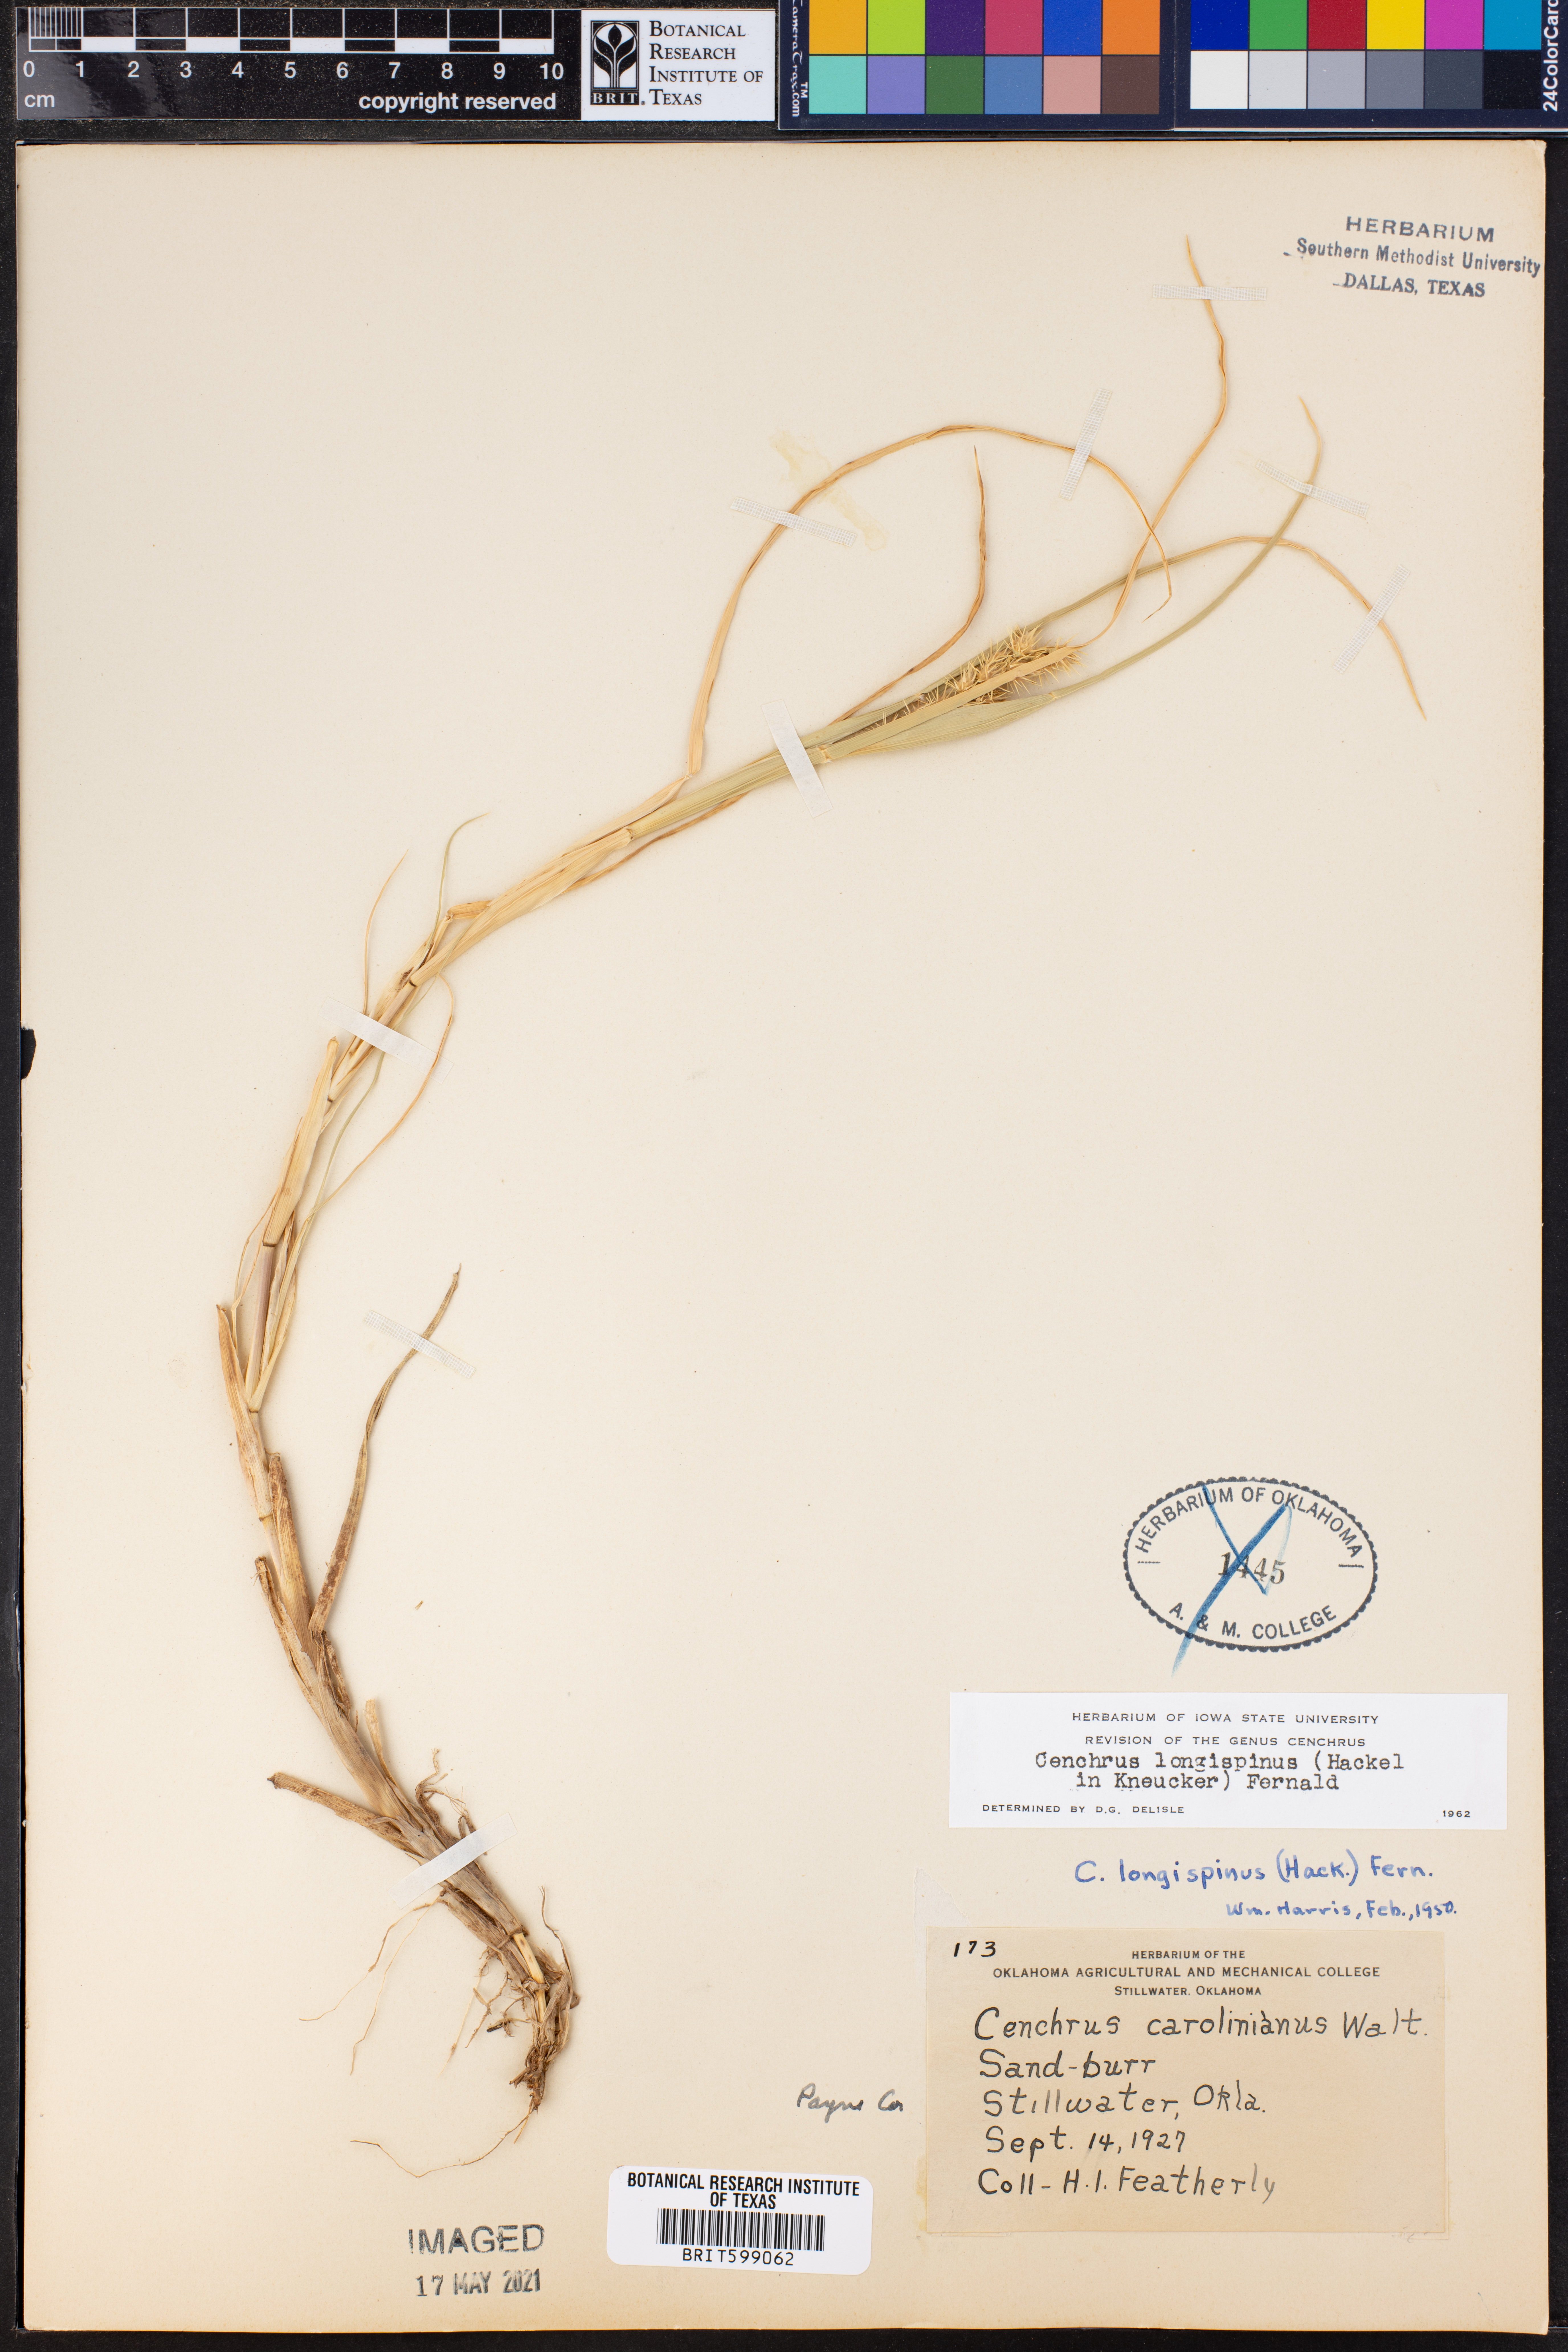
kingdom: Plantae
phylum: Tracheophyta
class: Liliopsida
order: Poales
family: Poaceae
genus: Cenchrus
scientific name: Cenchrus longispinus
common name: Mat sandbur
